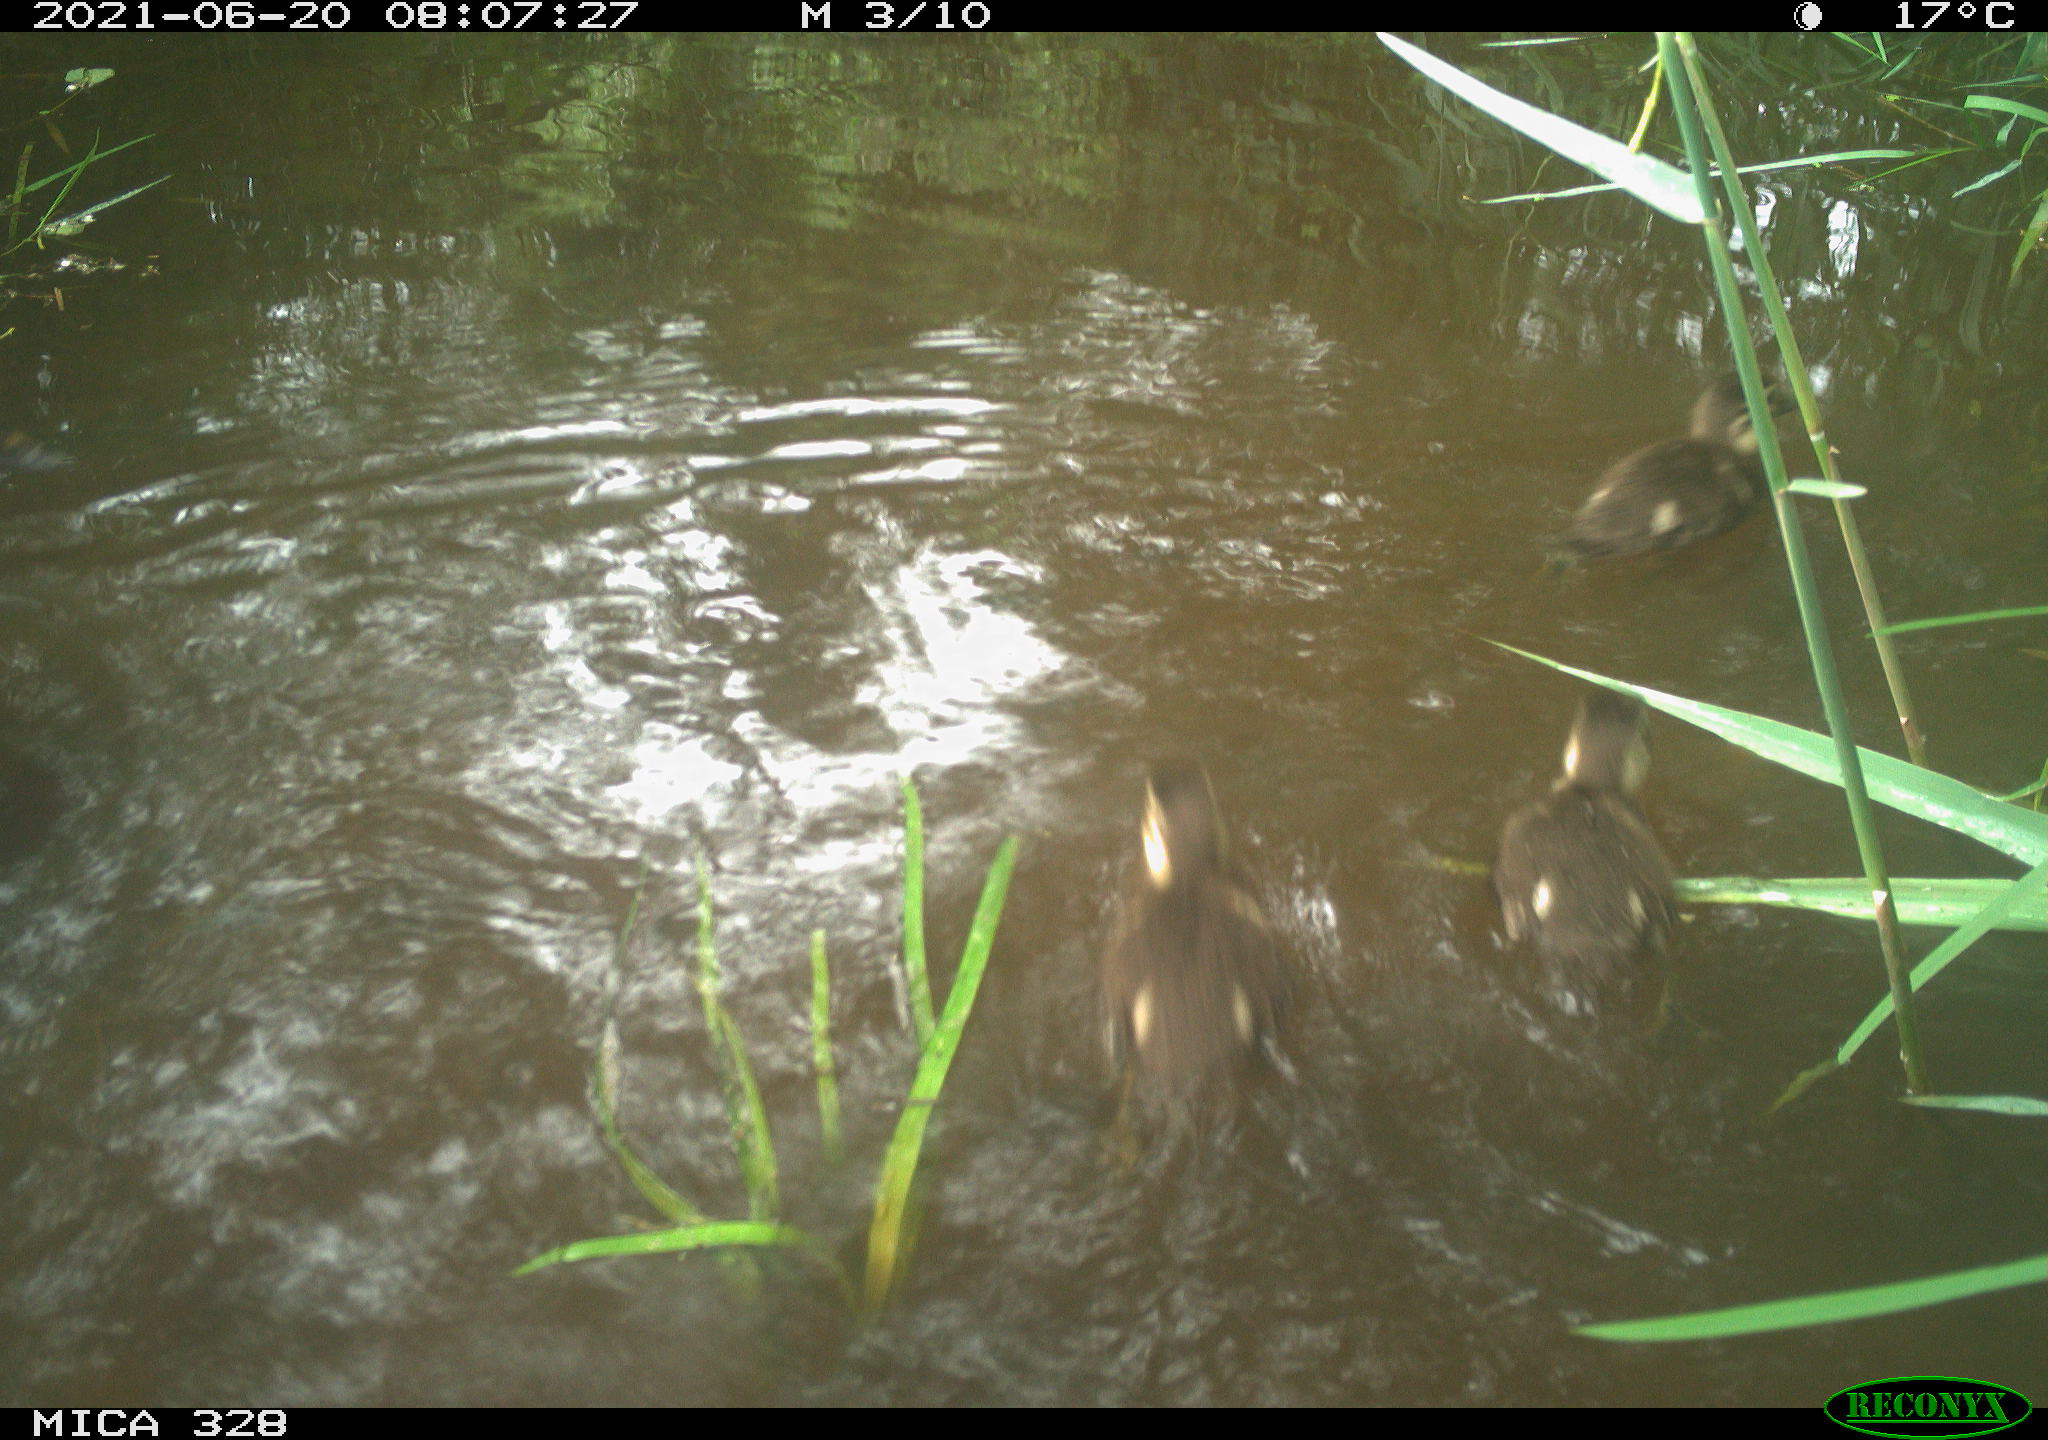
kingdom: Animalia
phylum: Chordata
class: Aves
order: Anseriformes
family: Anatidae
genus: Aix
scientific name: Aix galericulata
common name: Mandarin duck
